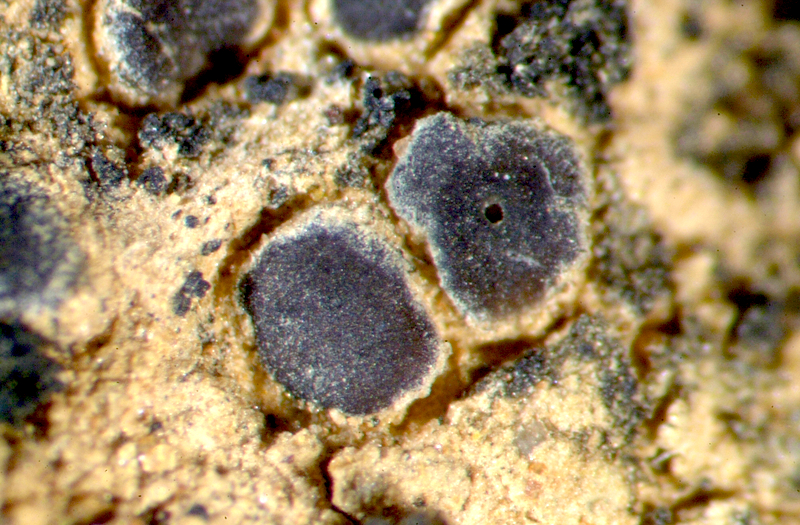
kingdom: Fungi
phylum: Ascomycota
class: Lecanoromycetes
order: Lecanorales
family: Ramalinaceae
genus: Bibbya
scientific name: Bibbya australis
